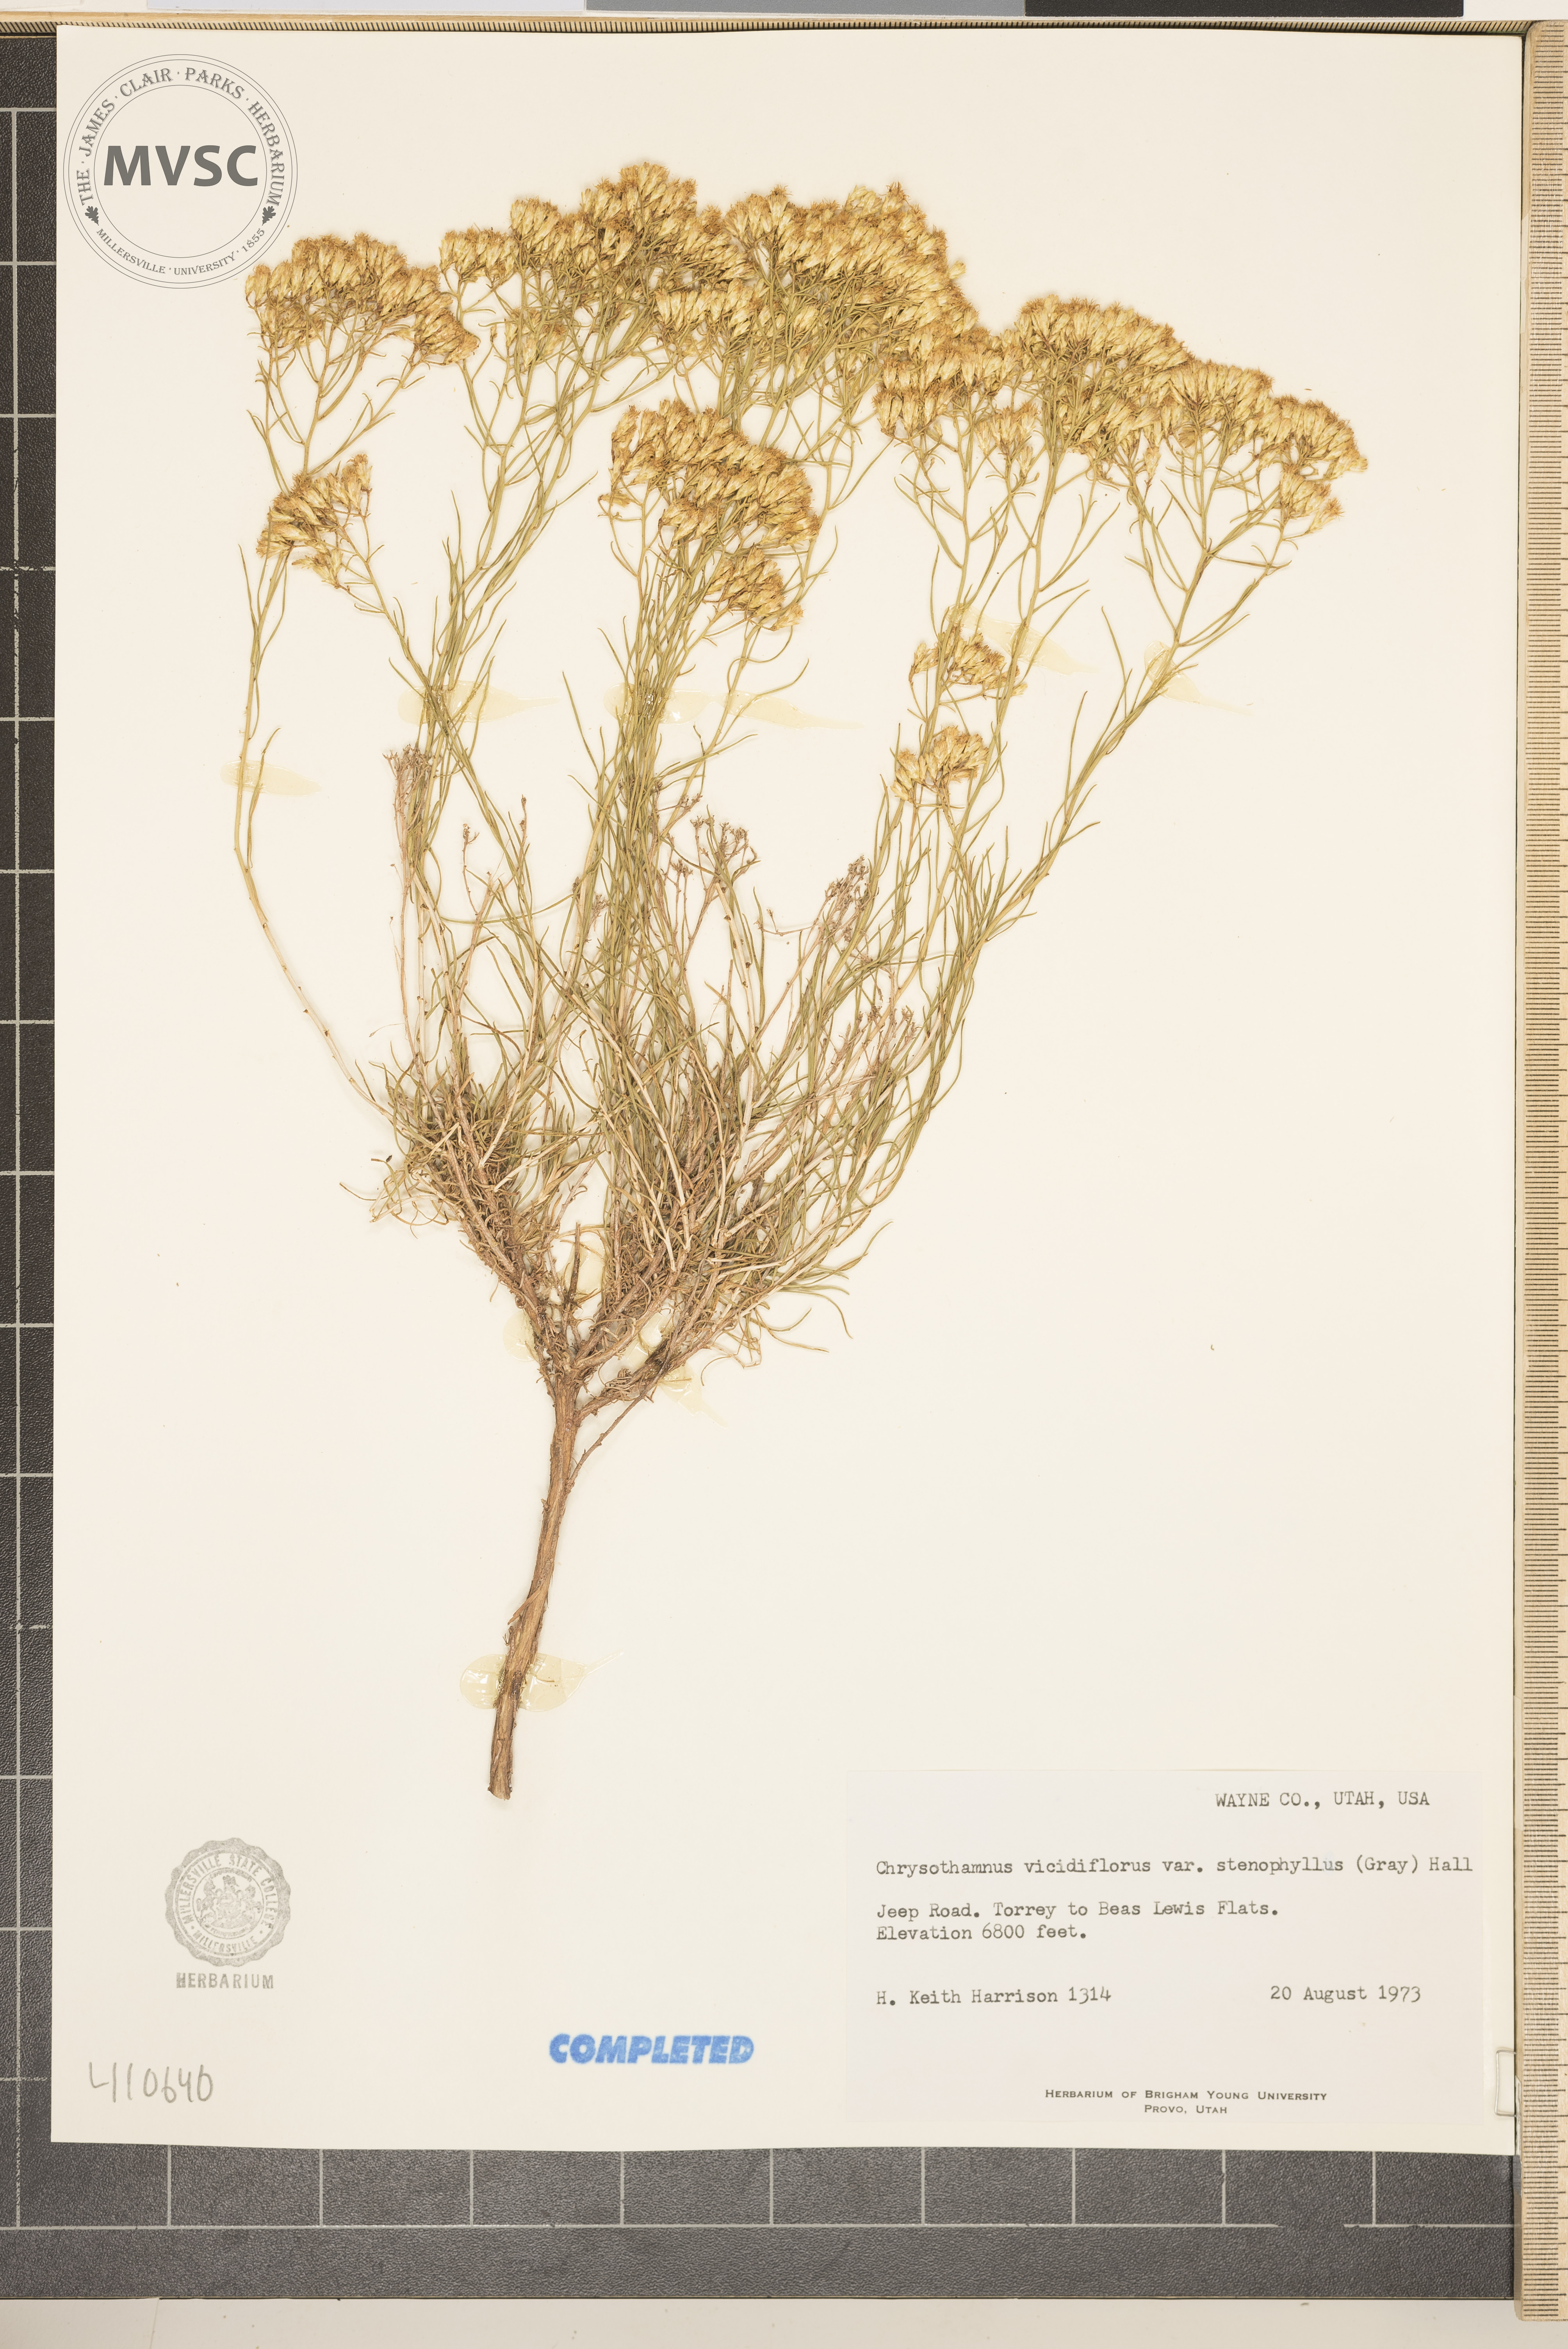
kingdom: Plantae
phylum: Tracheophyta
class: Magnoliopsida
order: Asterales
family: Asteraceae
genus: Chrysothamnus
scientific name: Chrysothamnus viscidiflorus
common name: Yellow rabbitbrush
